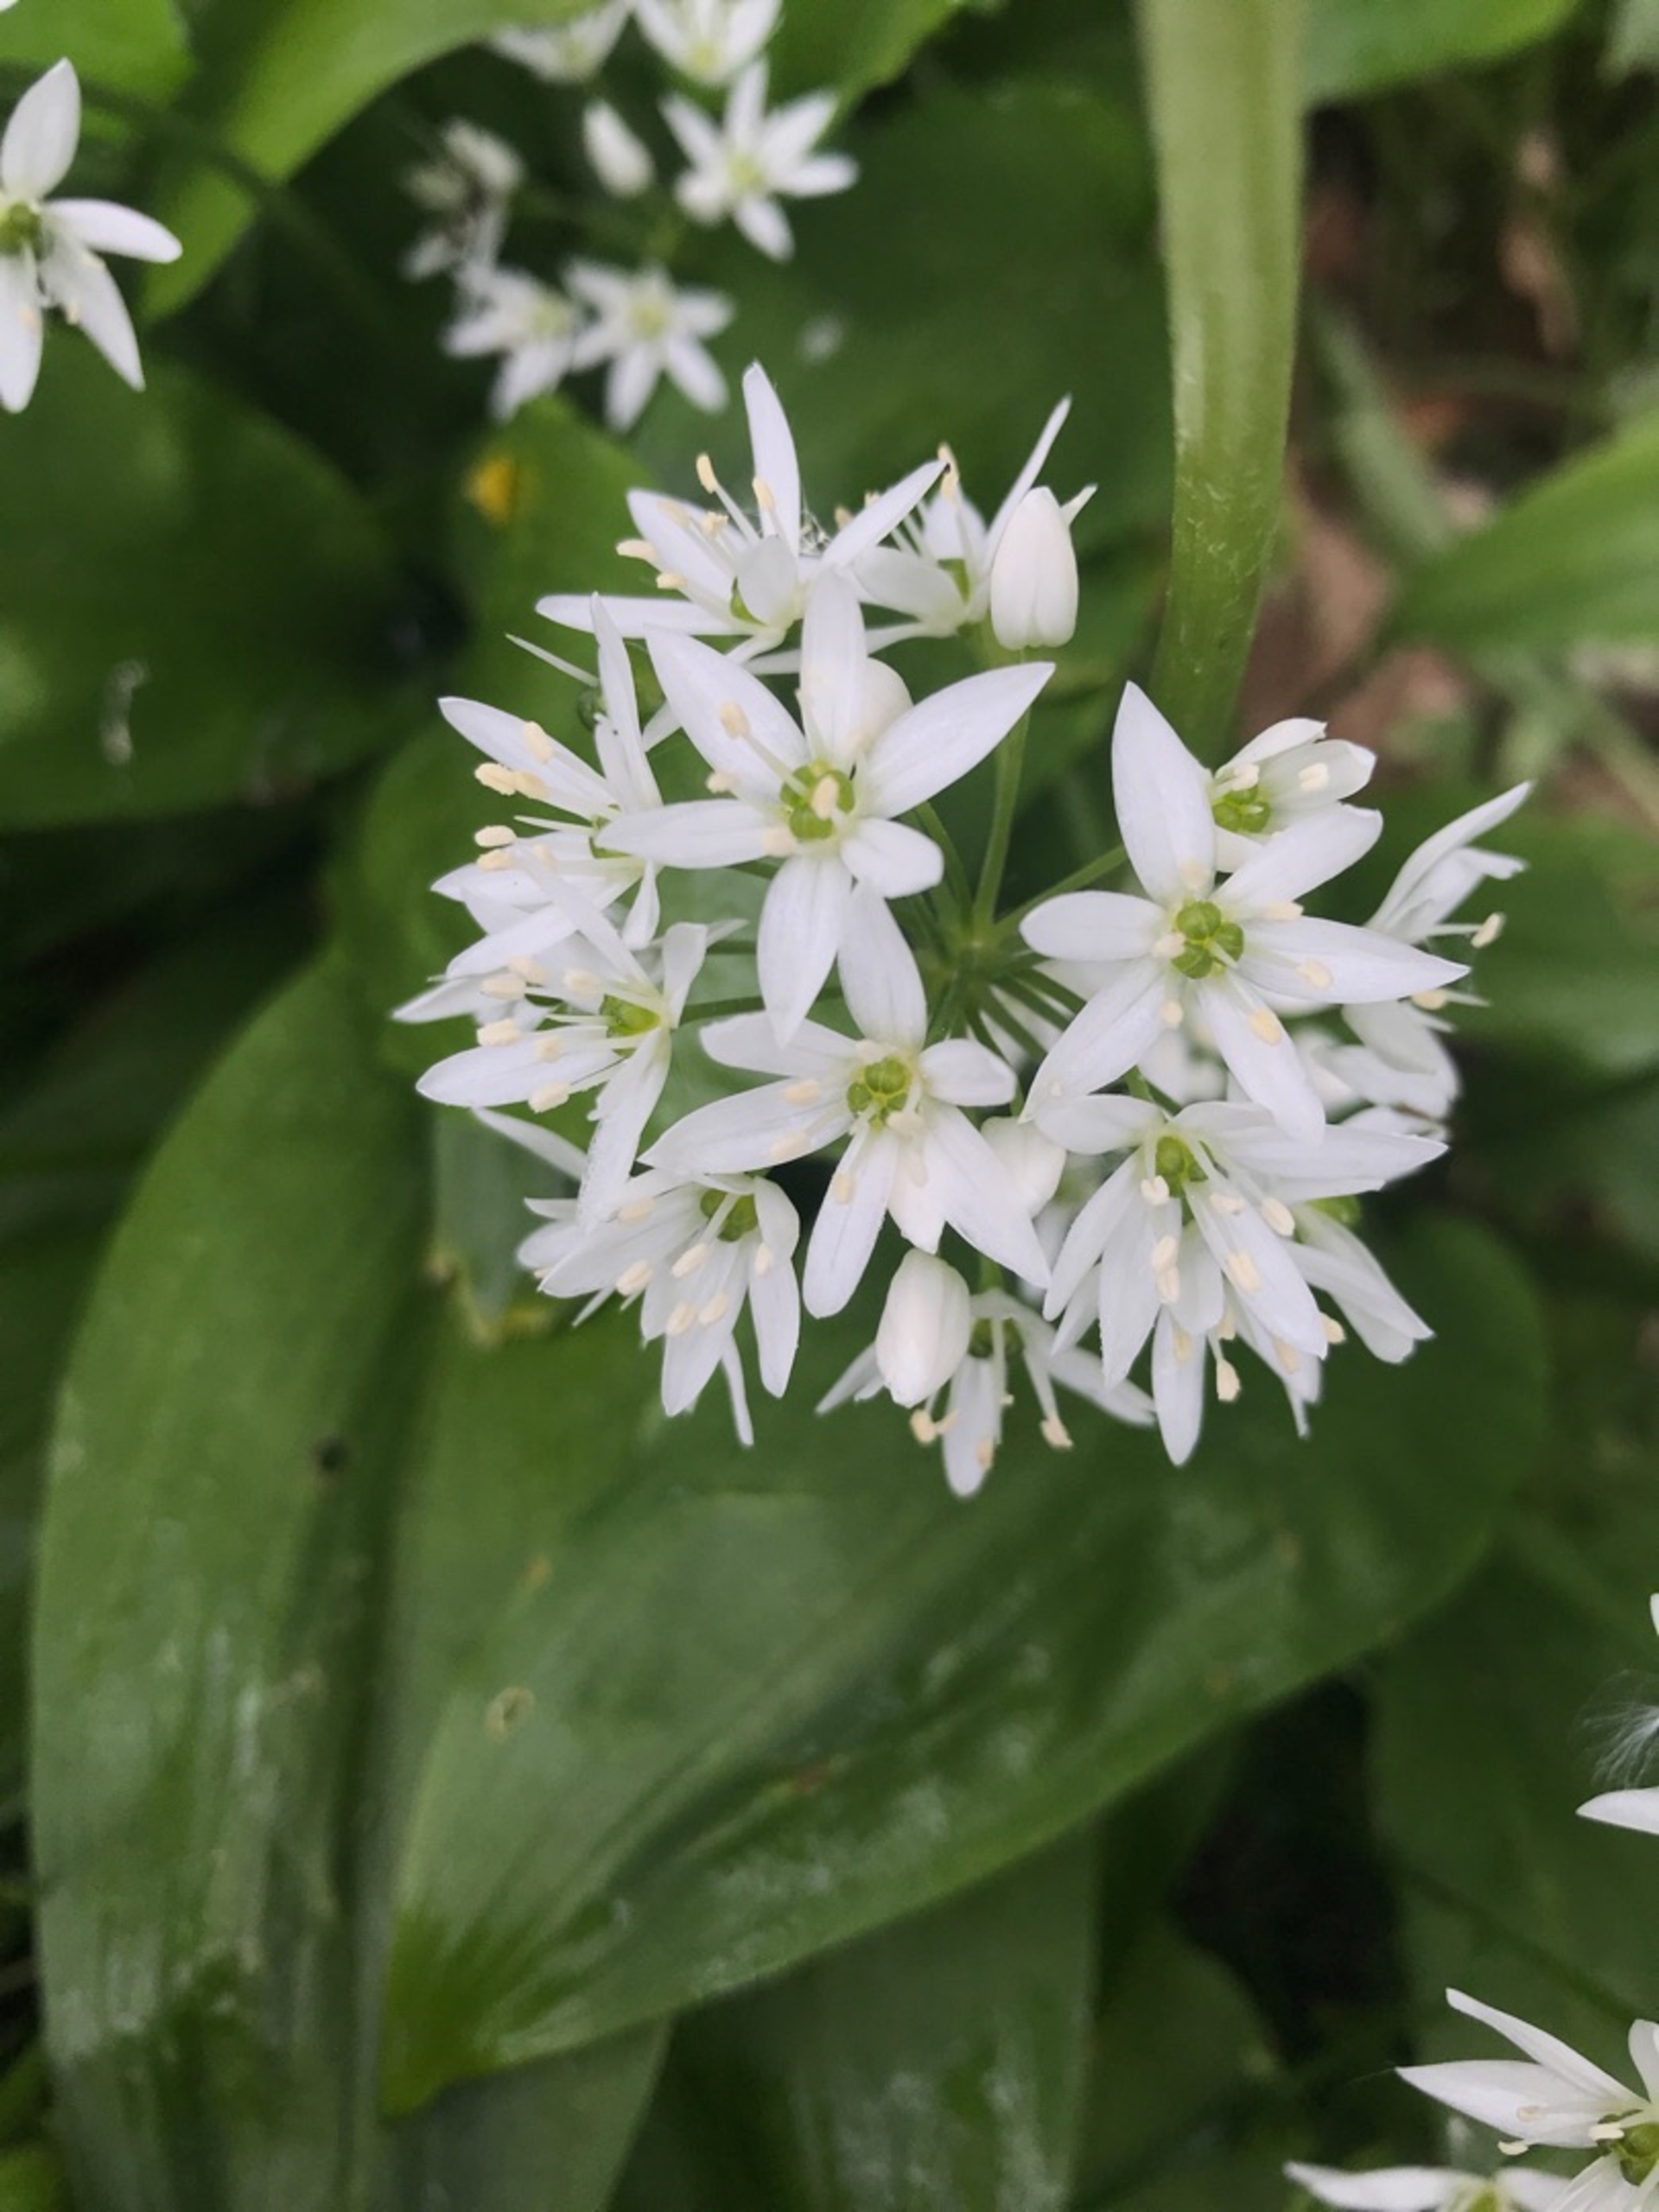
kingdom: Plantae
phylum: Tracheophyta
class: Liliopsida
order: Asparagales
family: Amaryllidaceae
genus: Allium
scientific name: Allium ursinum
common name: Rams-løg
